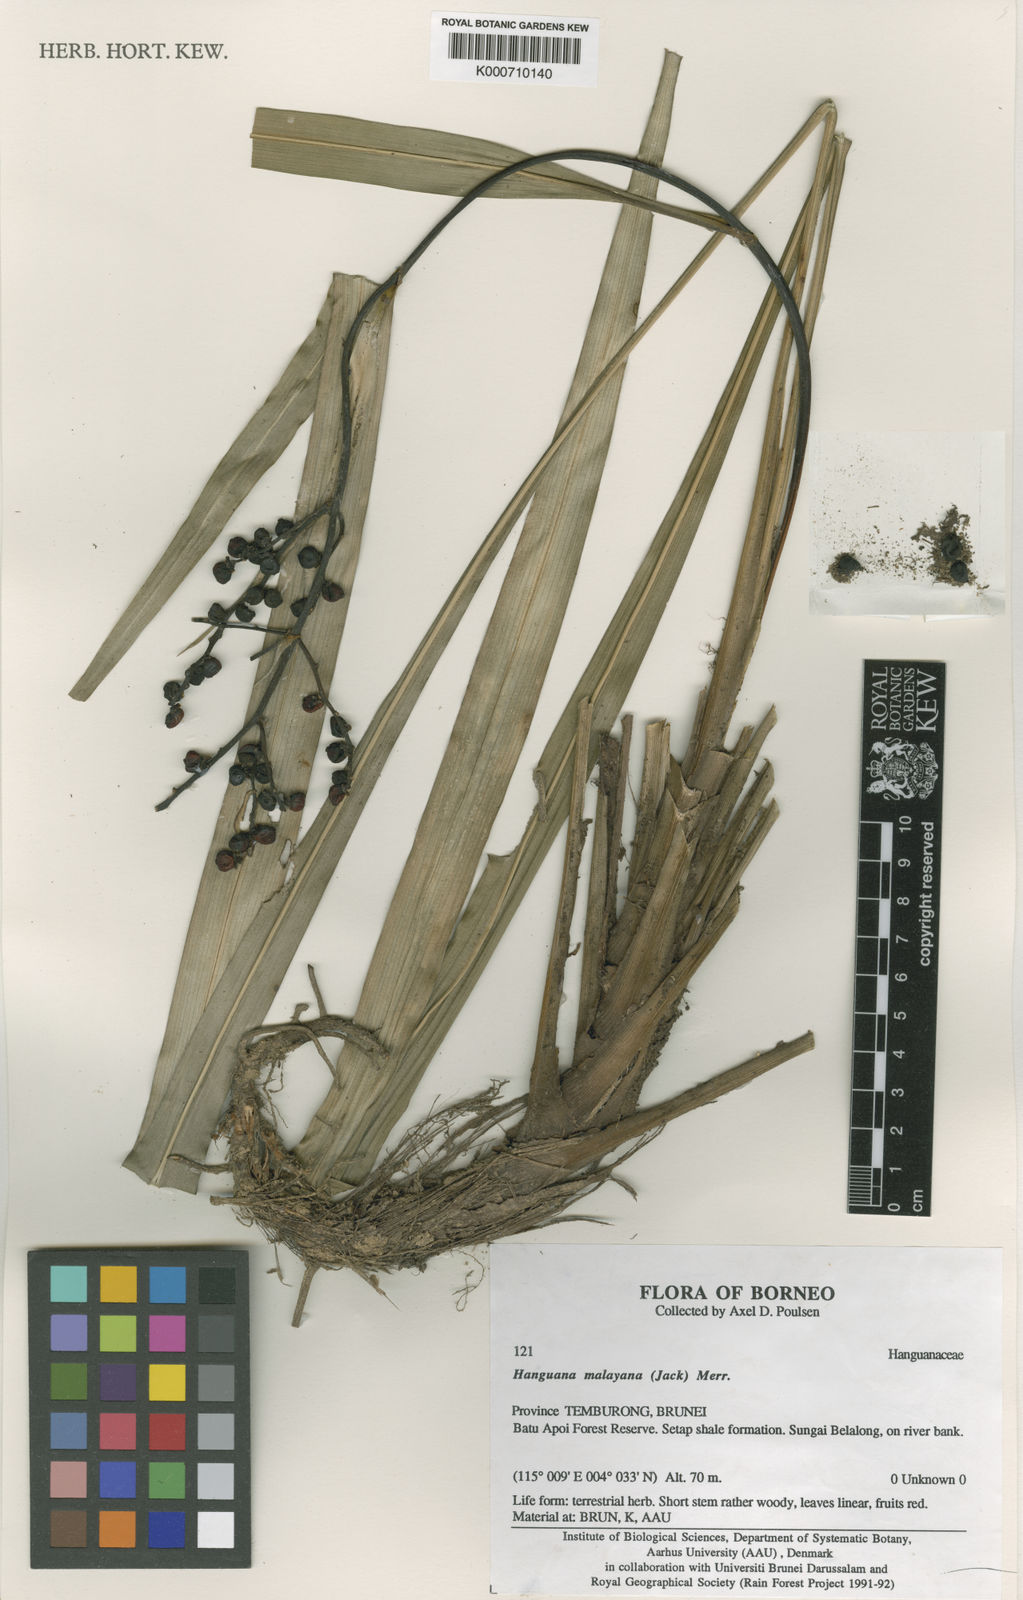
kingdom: Plantae
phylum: Tracheophyta
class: Liliopsida
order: Commelinales
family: Hanguanaceae
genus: Hanguana
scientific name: Hanguana malayana
